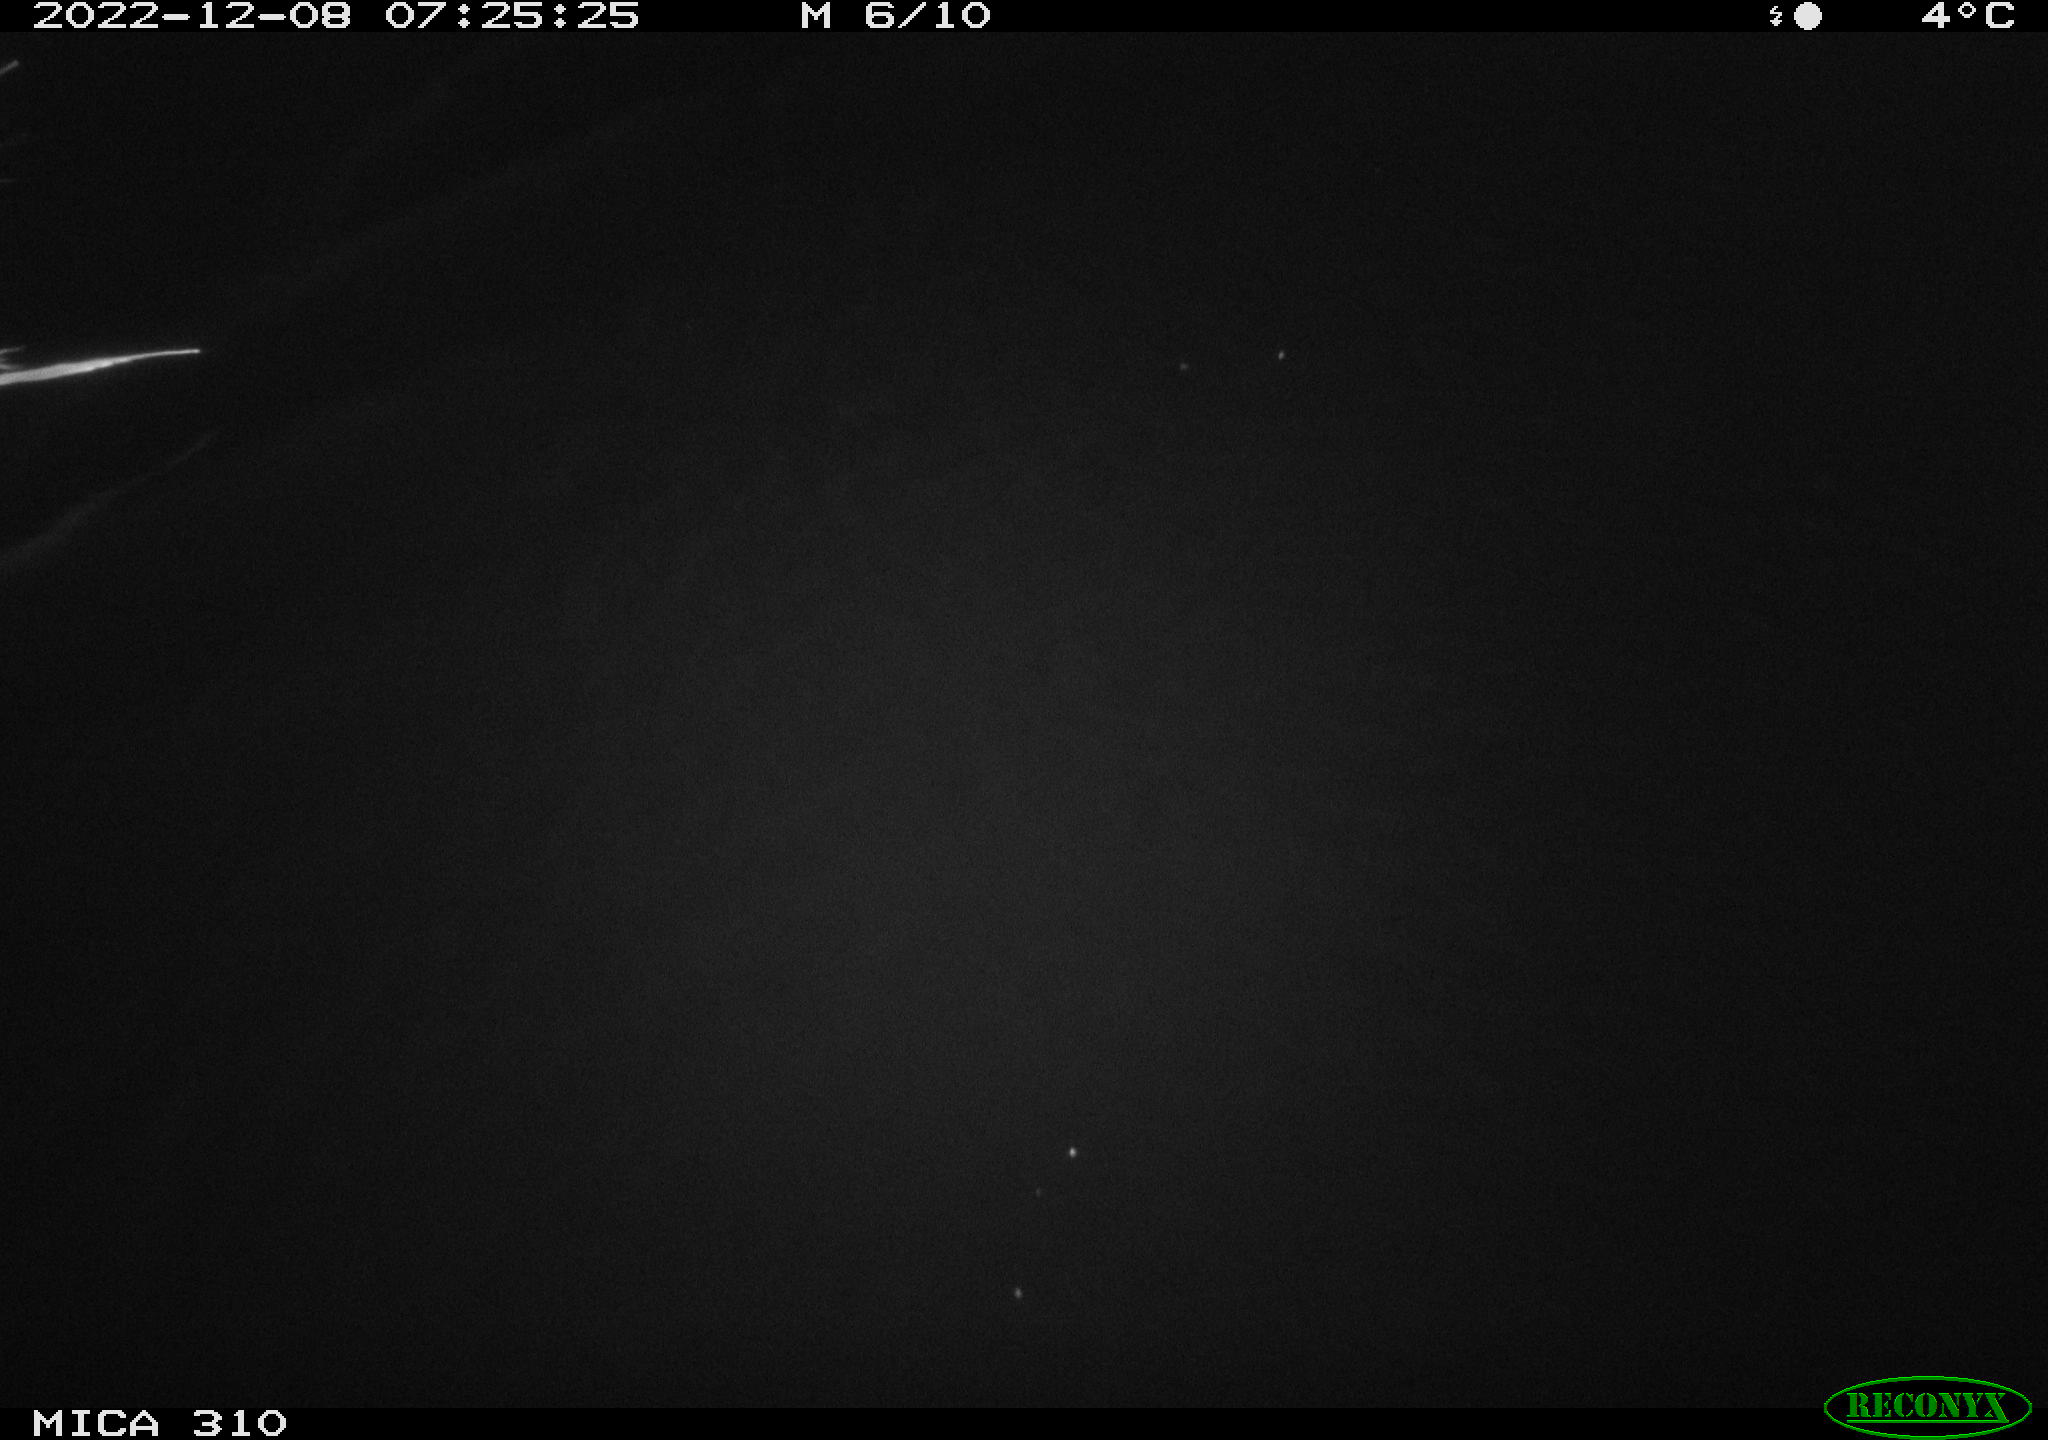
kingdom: Animalia
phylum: Chordata
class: Aves
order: Anseriformes
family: Anatidae
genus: Anas
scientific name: Anas
